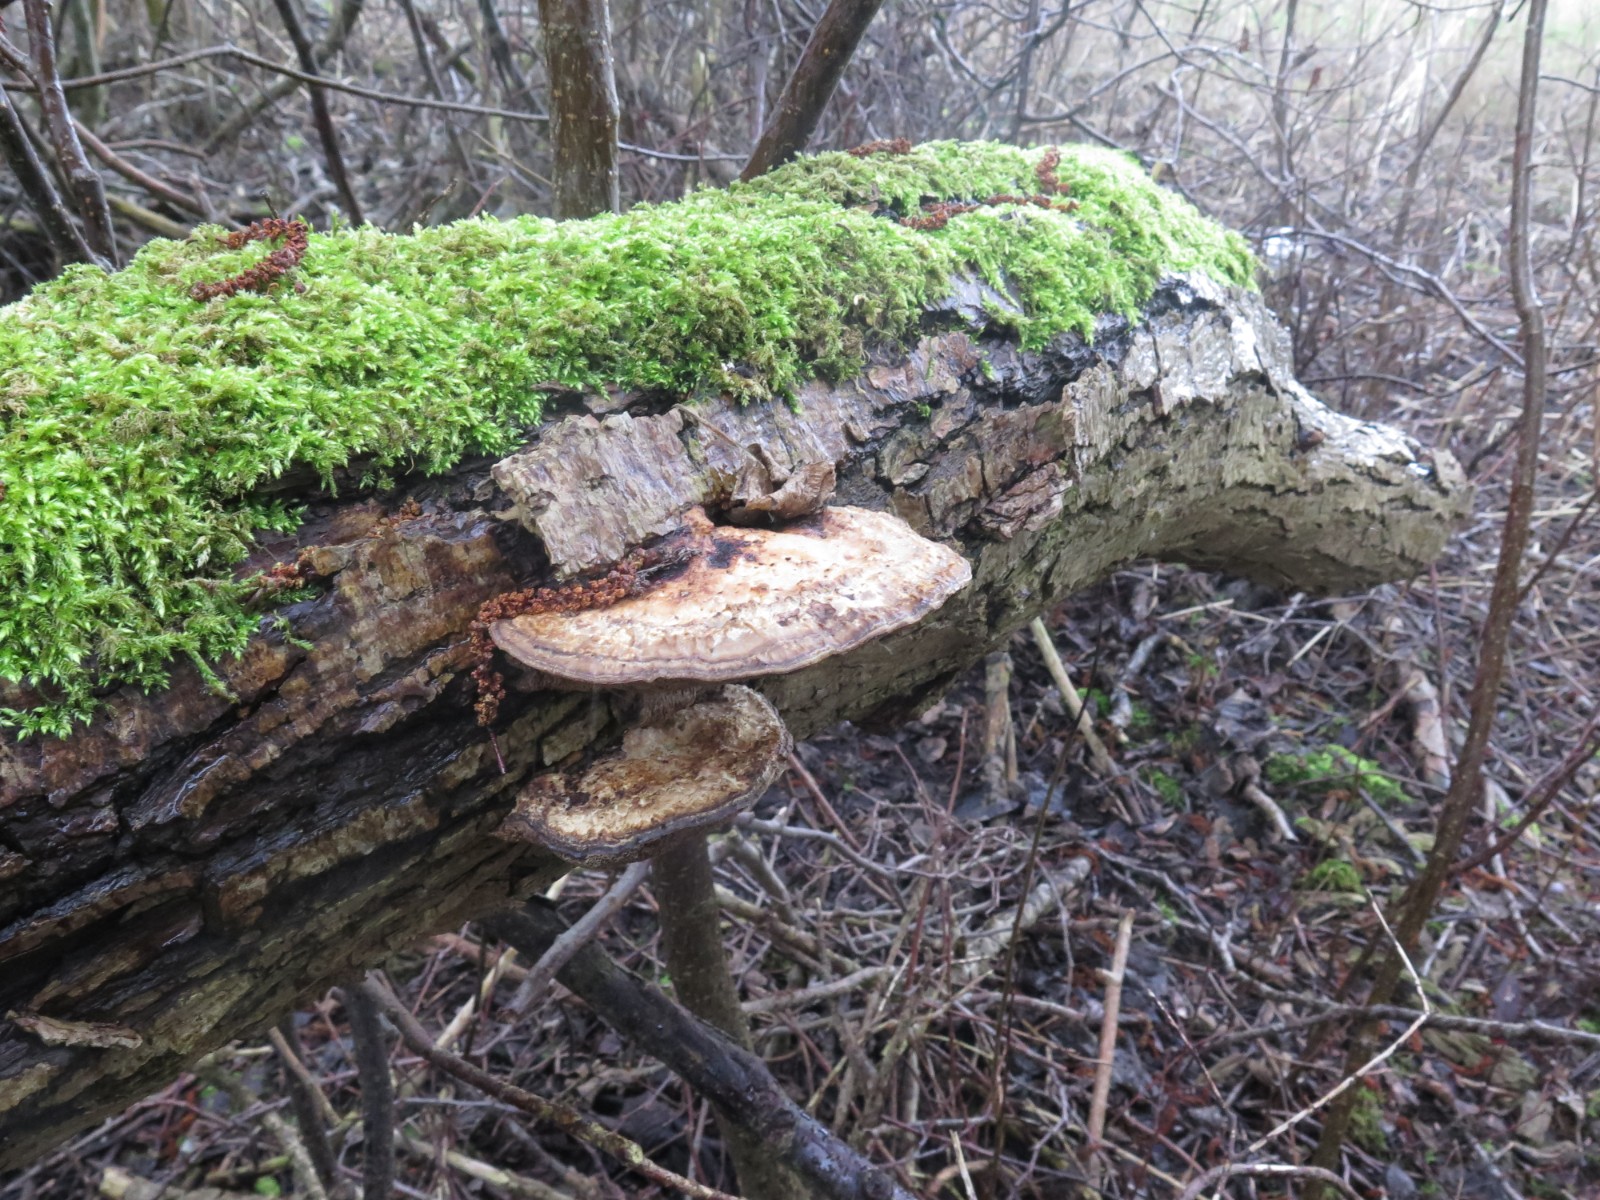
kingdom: Fungi
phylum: Basidiomycota
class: Agaricomycetes
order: Polyporales
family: Polyporaceae
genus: Daedaleopsis
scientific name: Daedaleopsis confragosa
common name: rødmende læderporesvamp
